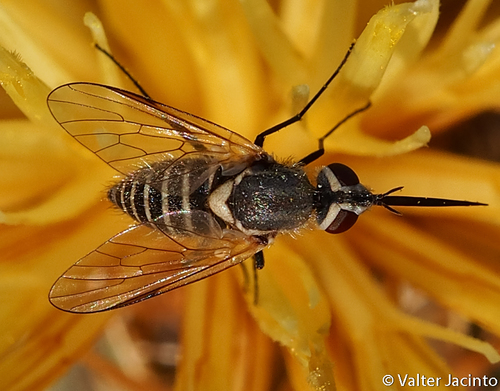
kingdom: Animalia
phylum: Arthropoda
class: Insecta
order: Diptera
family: Bombyliidae
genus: Phthiria
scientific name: Phthiria
